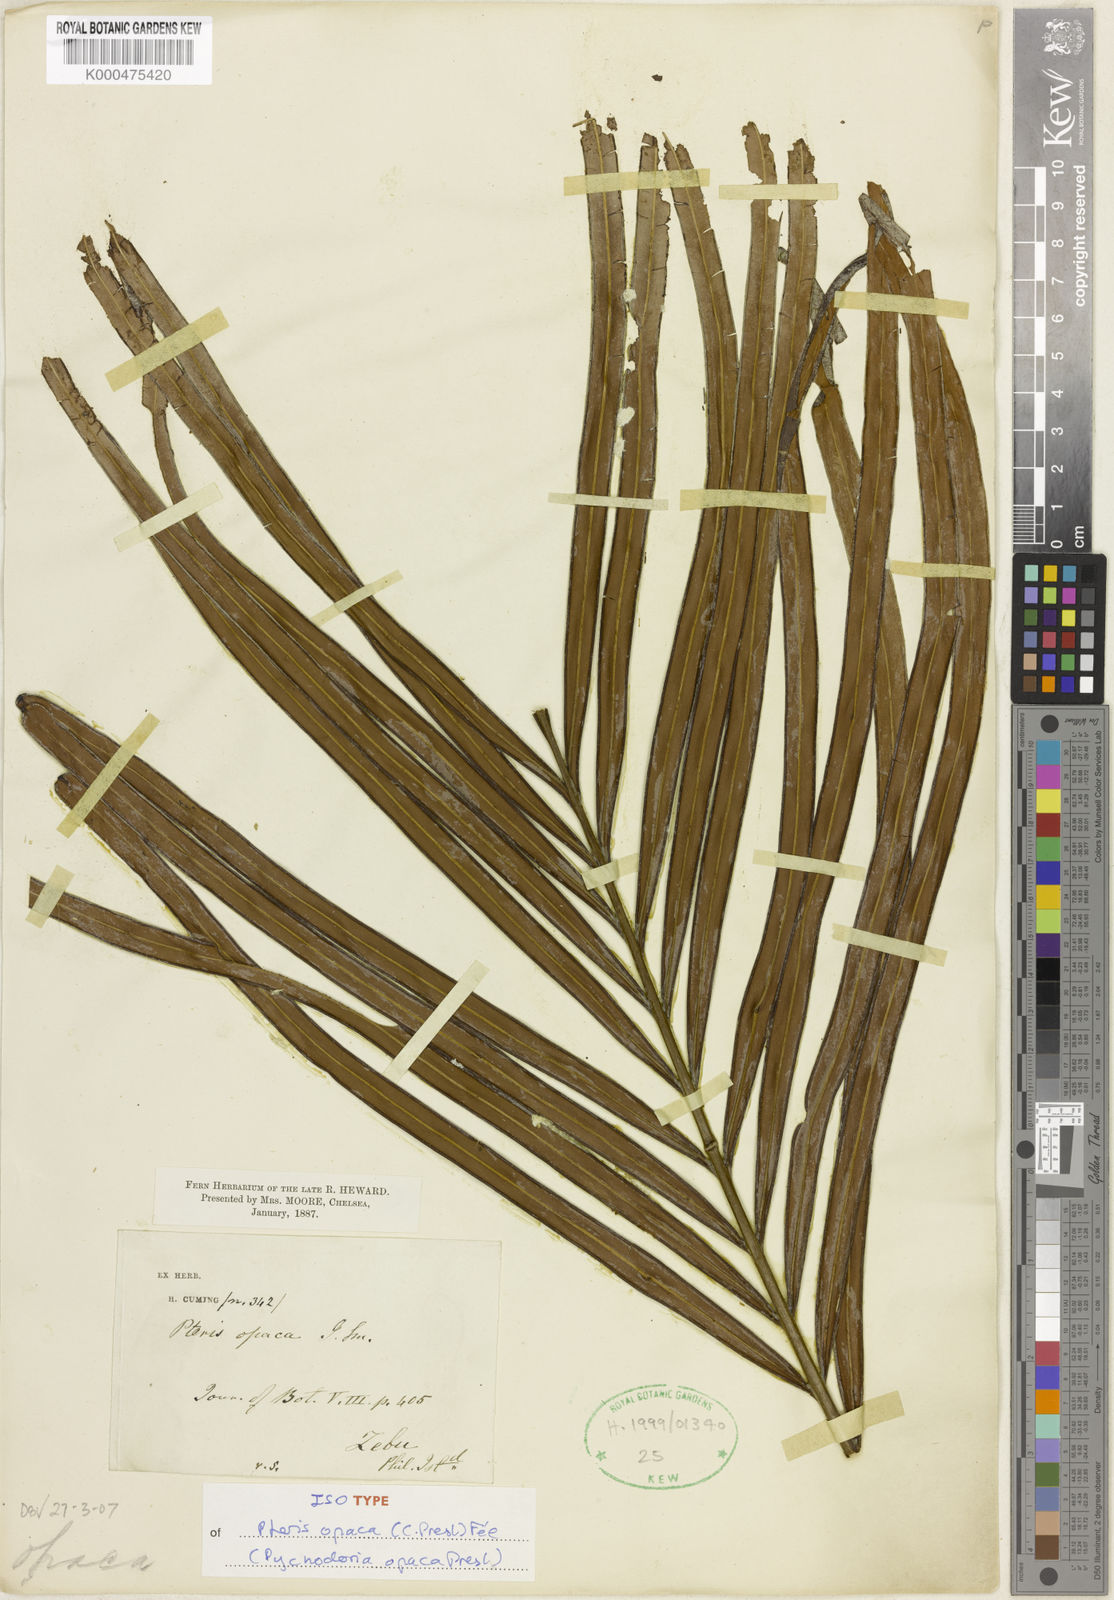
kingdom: Plantae
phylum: Tracheophyta
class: Polypodiopsida
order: Polypodiales
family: Pteridaceae
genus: Pteris
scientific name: Pteris
